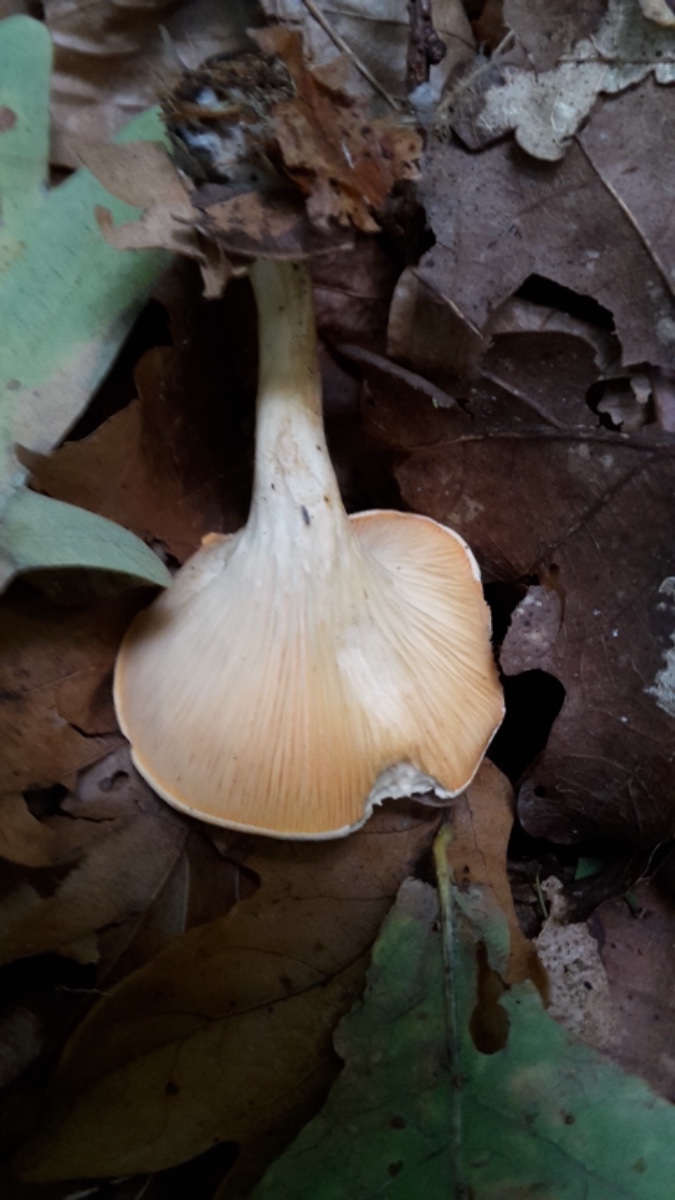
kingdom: Fungi
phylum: Basidiomycota
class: Agaricomycetes
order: Boletales
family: Hygrophoropsidaceae
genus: Hygrophoropsis
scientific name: Hygrophoropsis pallida
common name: bleg orangekantarel
